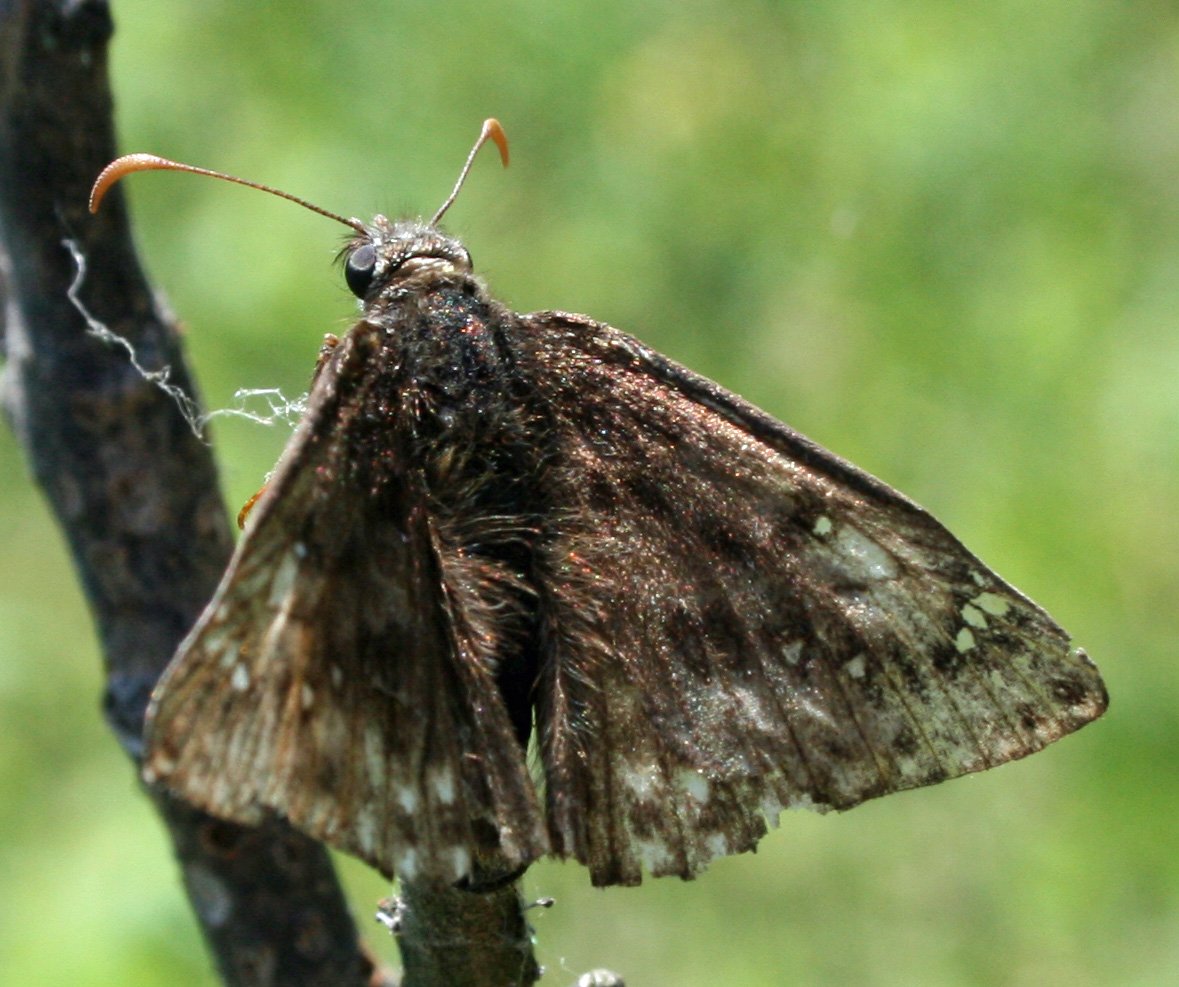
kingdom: Animalia
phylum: Arthropoda
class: Insecta
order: Lepidoptera
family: Hesperiidae
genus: Gesta
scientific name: Gesta
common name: Juvenal's Duskywing
